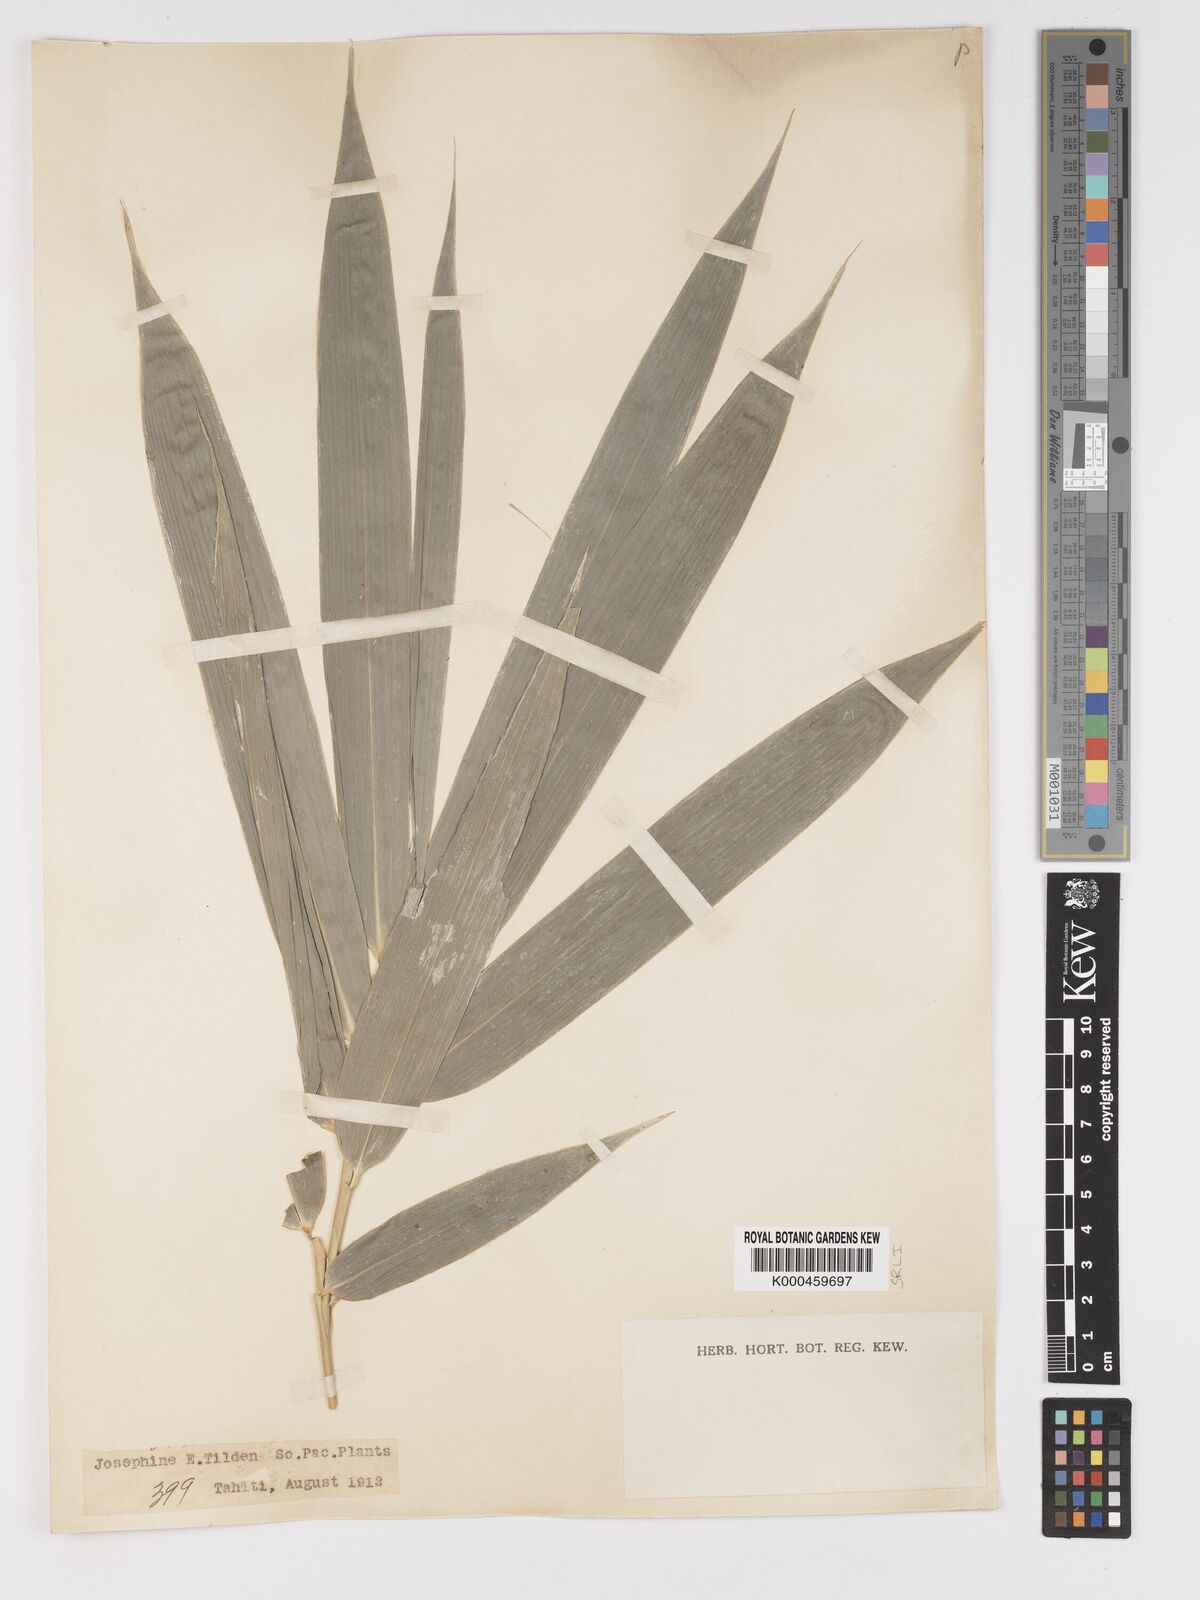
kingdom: Plantae
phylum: Tracheophyta
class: Liliopsida
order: Poales
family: Poaceae
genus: Schizostachyum
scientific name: Schizostachyum glaucifolium
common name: Polynesian 'ohe
